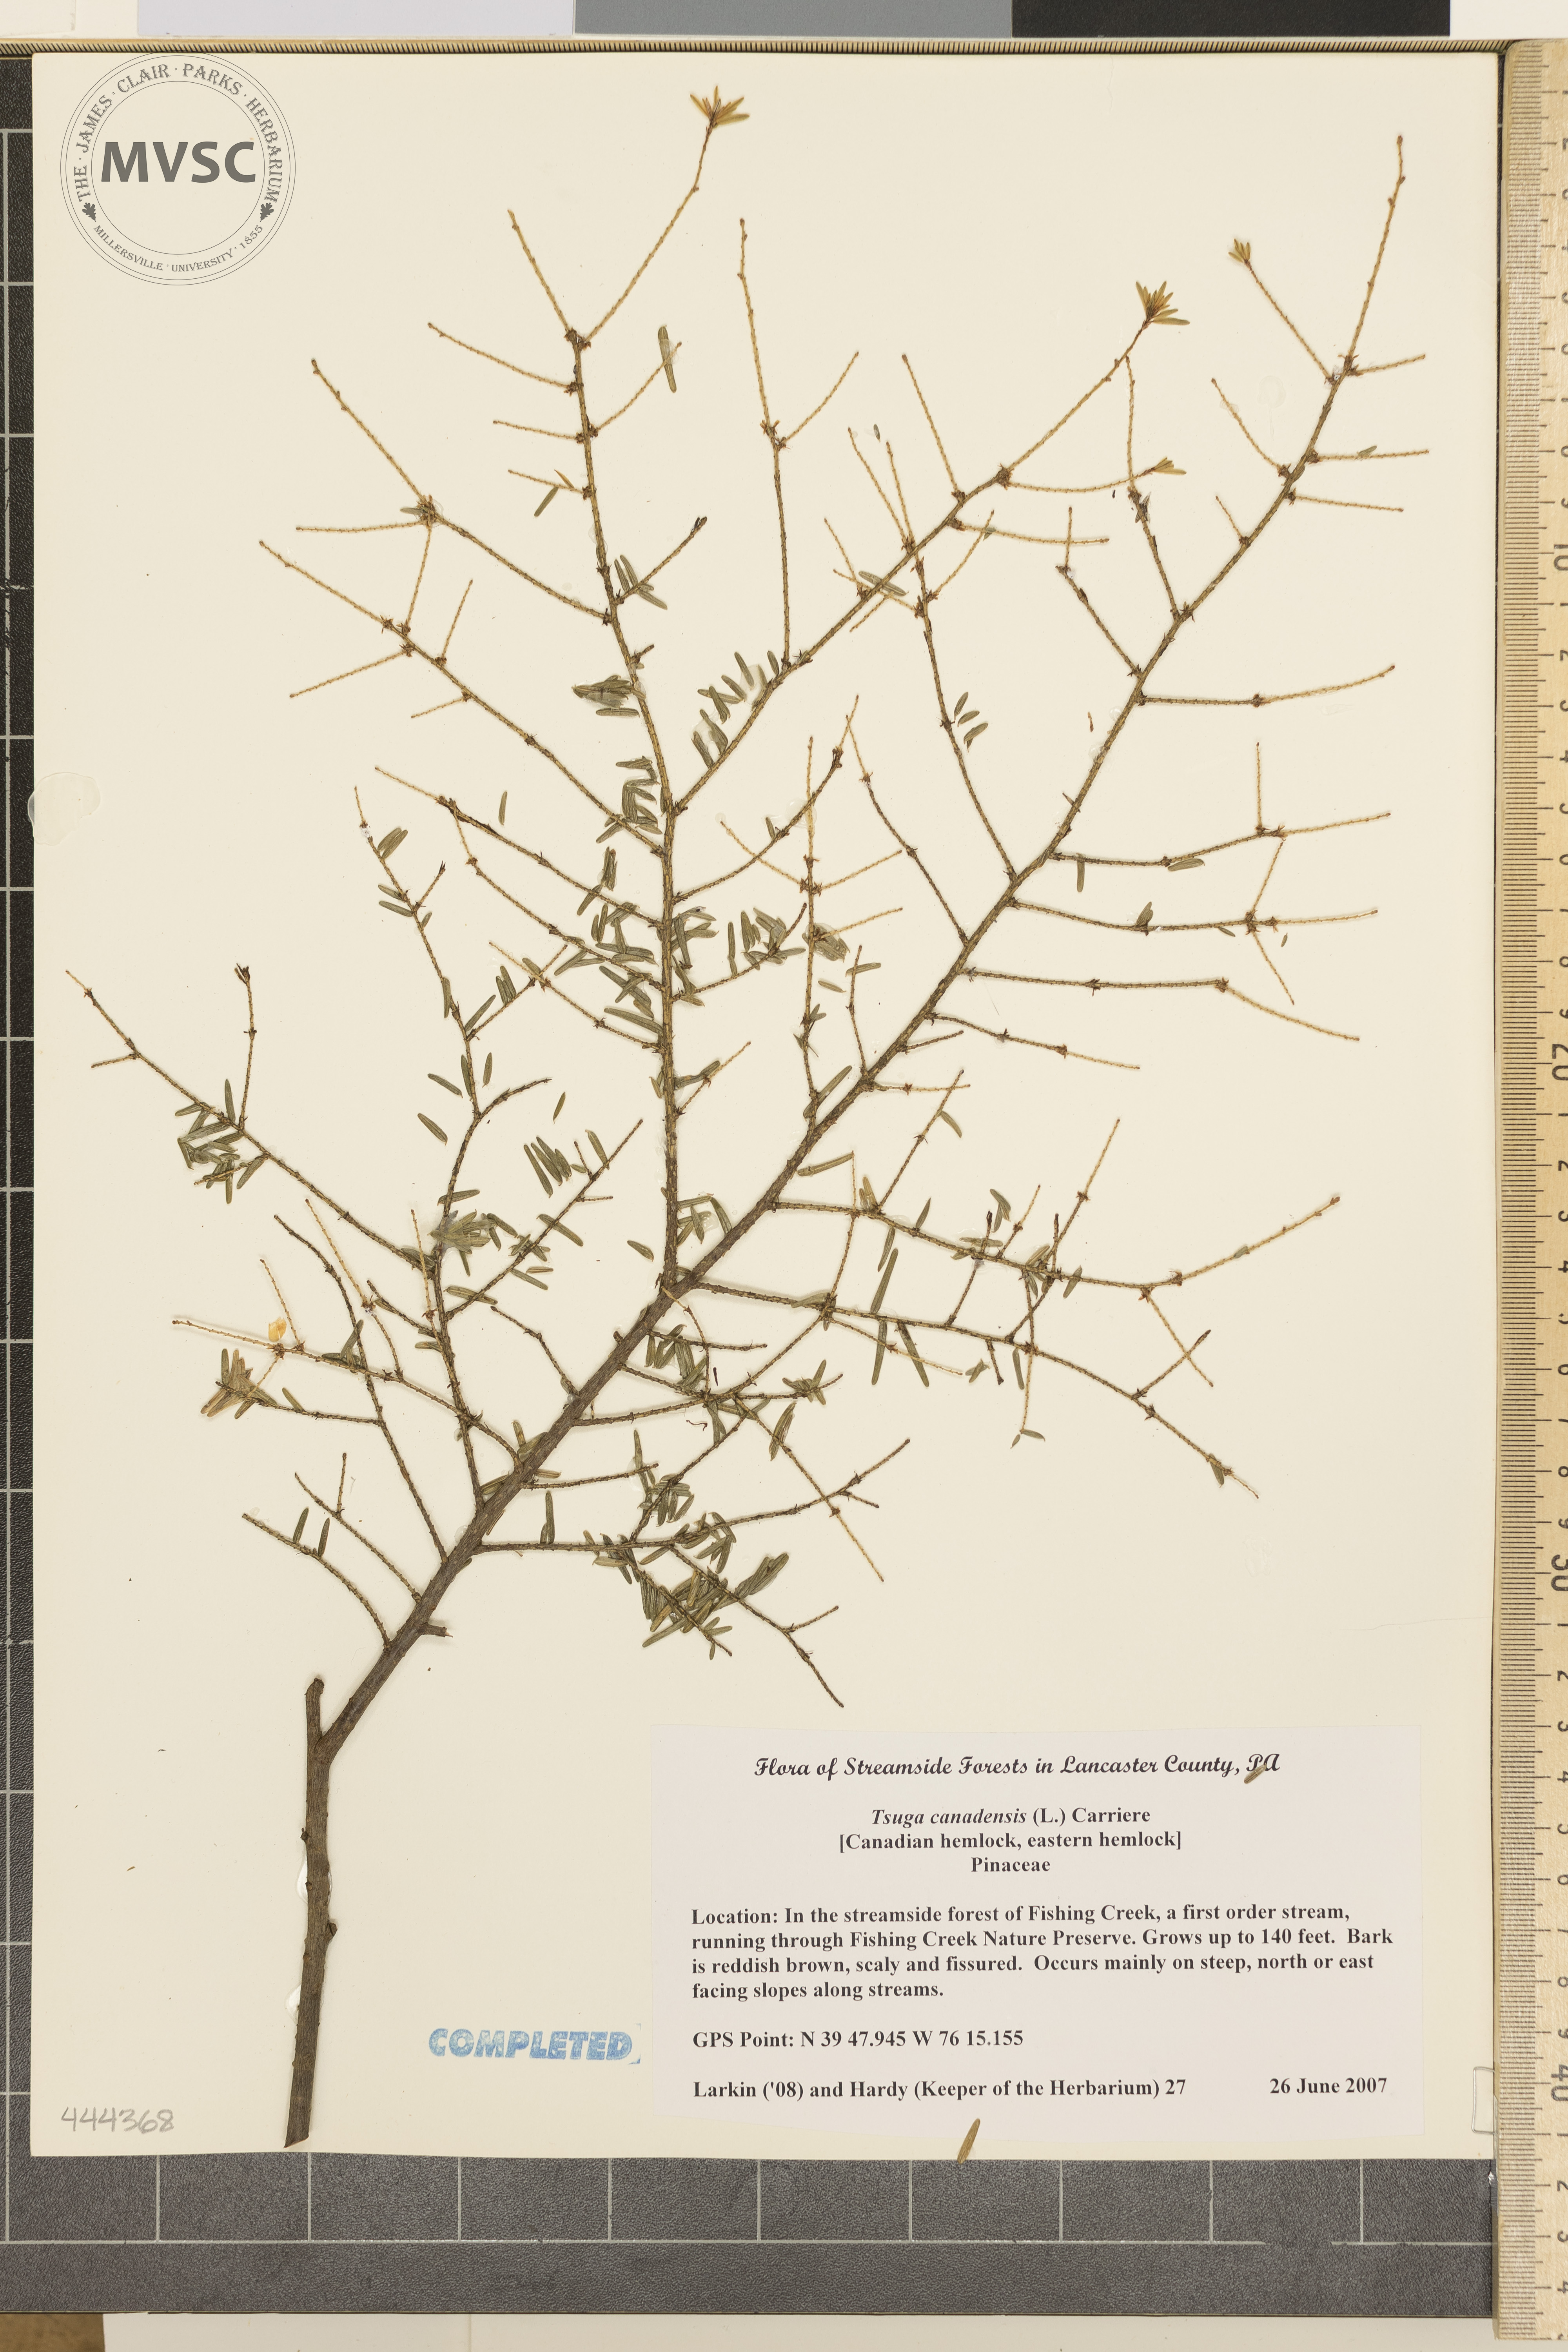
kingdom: Plantae
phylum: Tracheophyta
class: Pinopsida
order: Pinales
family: Pinaceae
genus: Tsuga
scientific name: Tsuga canadensis
